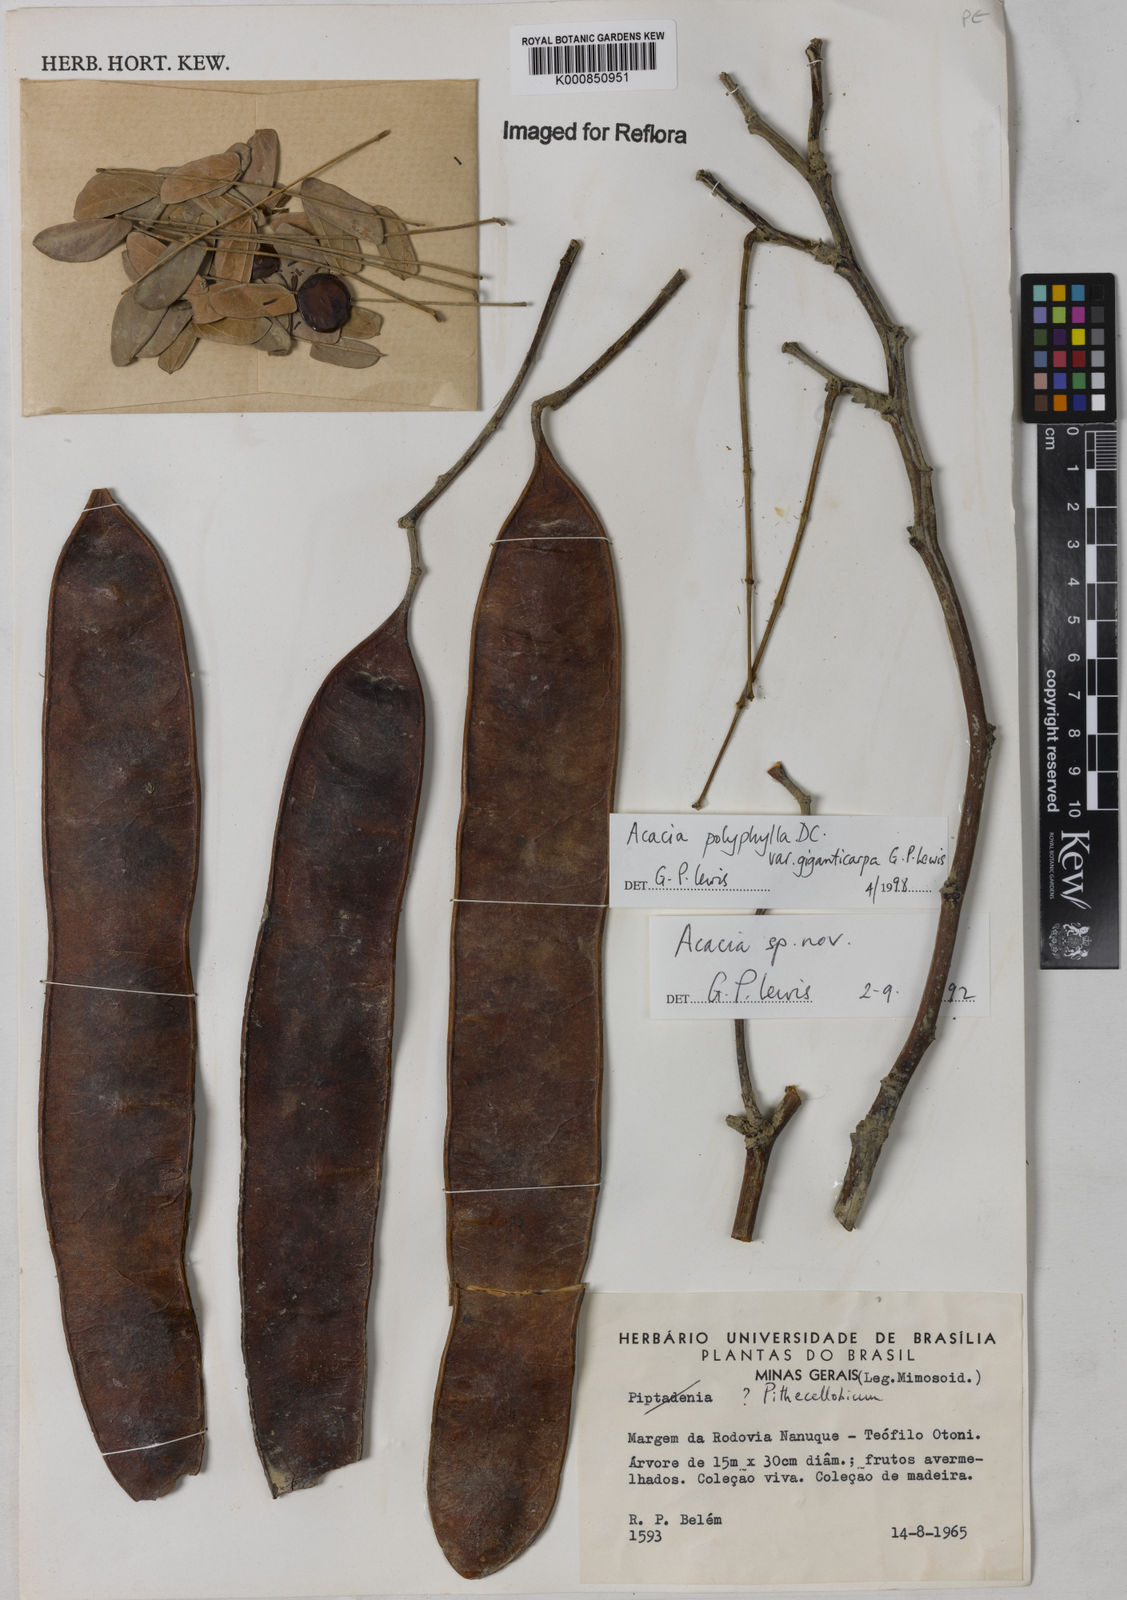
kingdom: Plantae
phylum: Tracheophyta
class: Magnoliopsida
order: Fabales
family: Fabaceae
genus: Senegalia
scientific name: Senegalia giganticarpa
